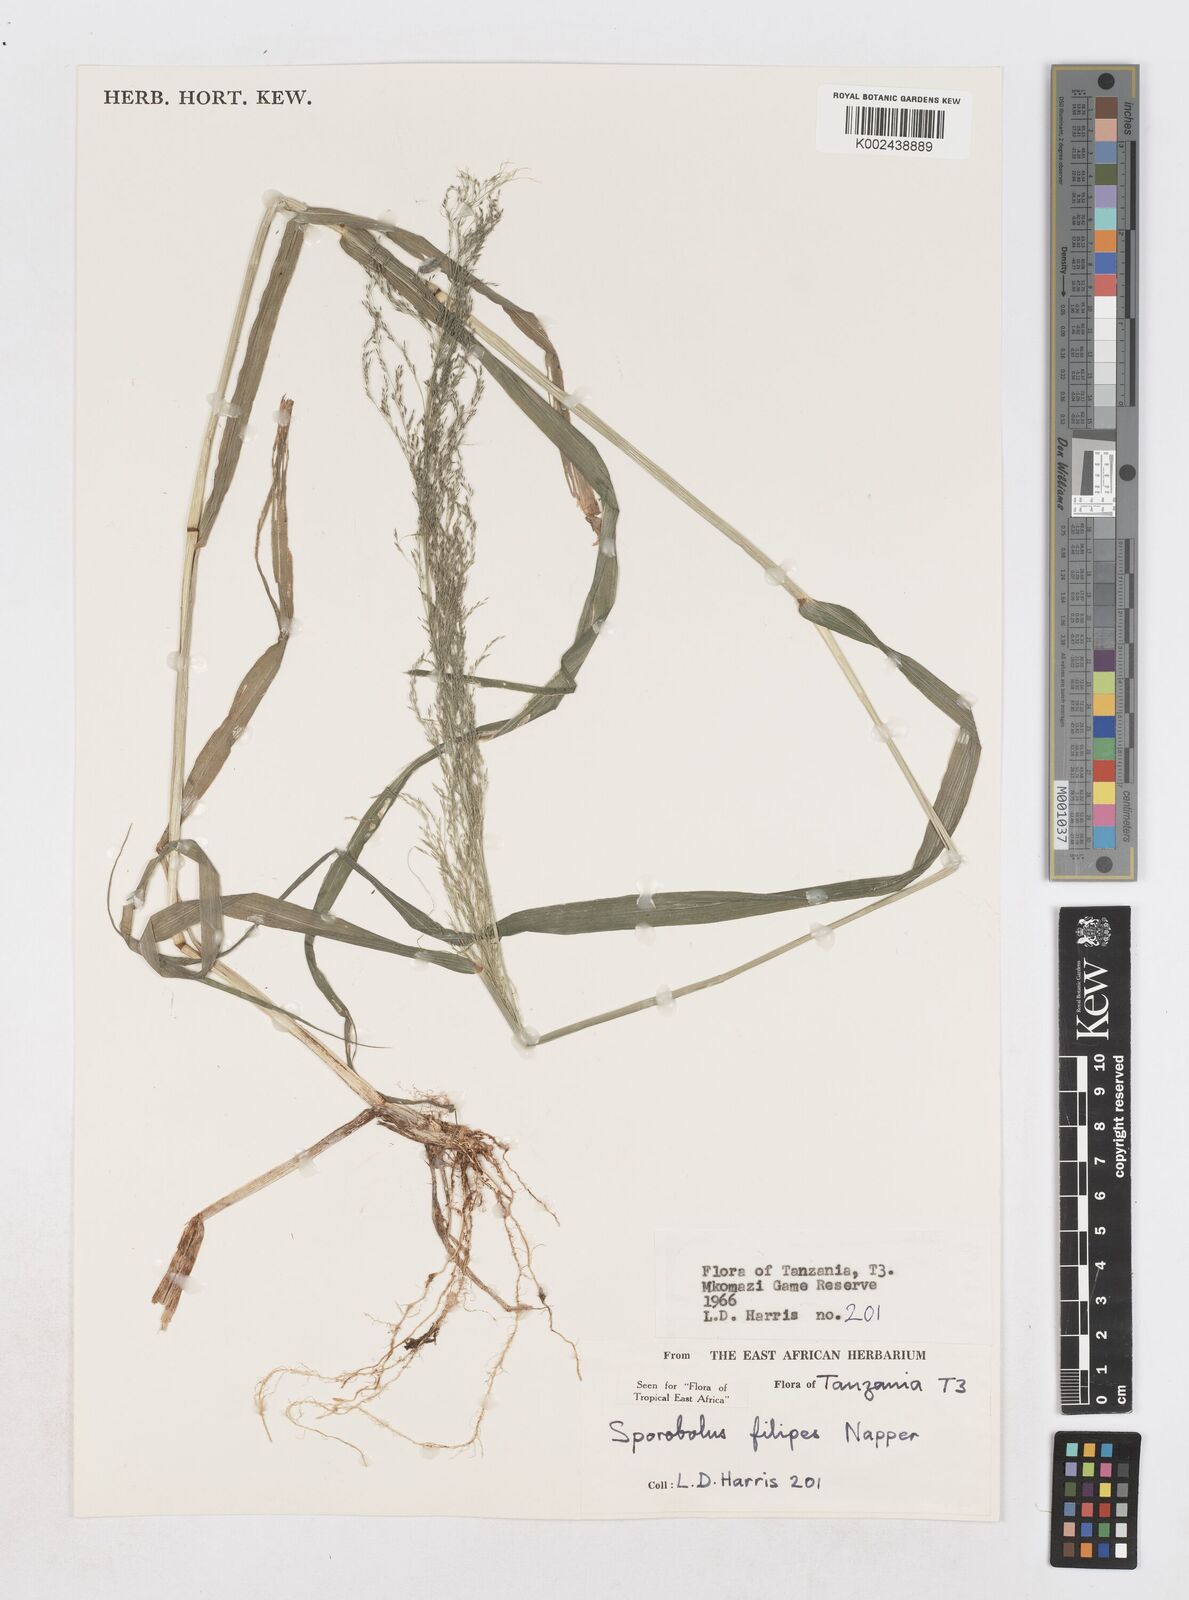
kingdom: Plantae
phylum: Tracheophyta
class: Liliopsida
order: Poales
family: Poaceae
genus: Sporobolus
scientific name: Sporobolus agrostoides
